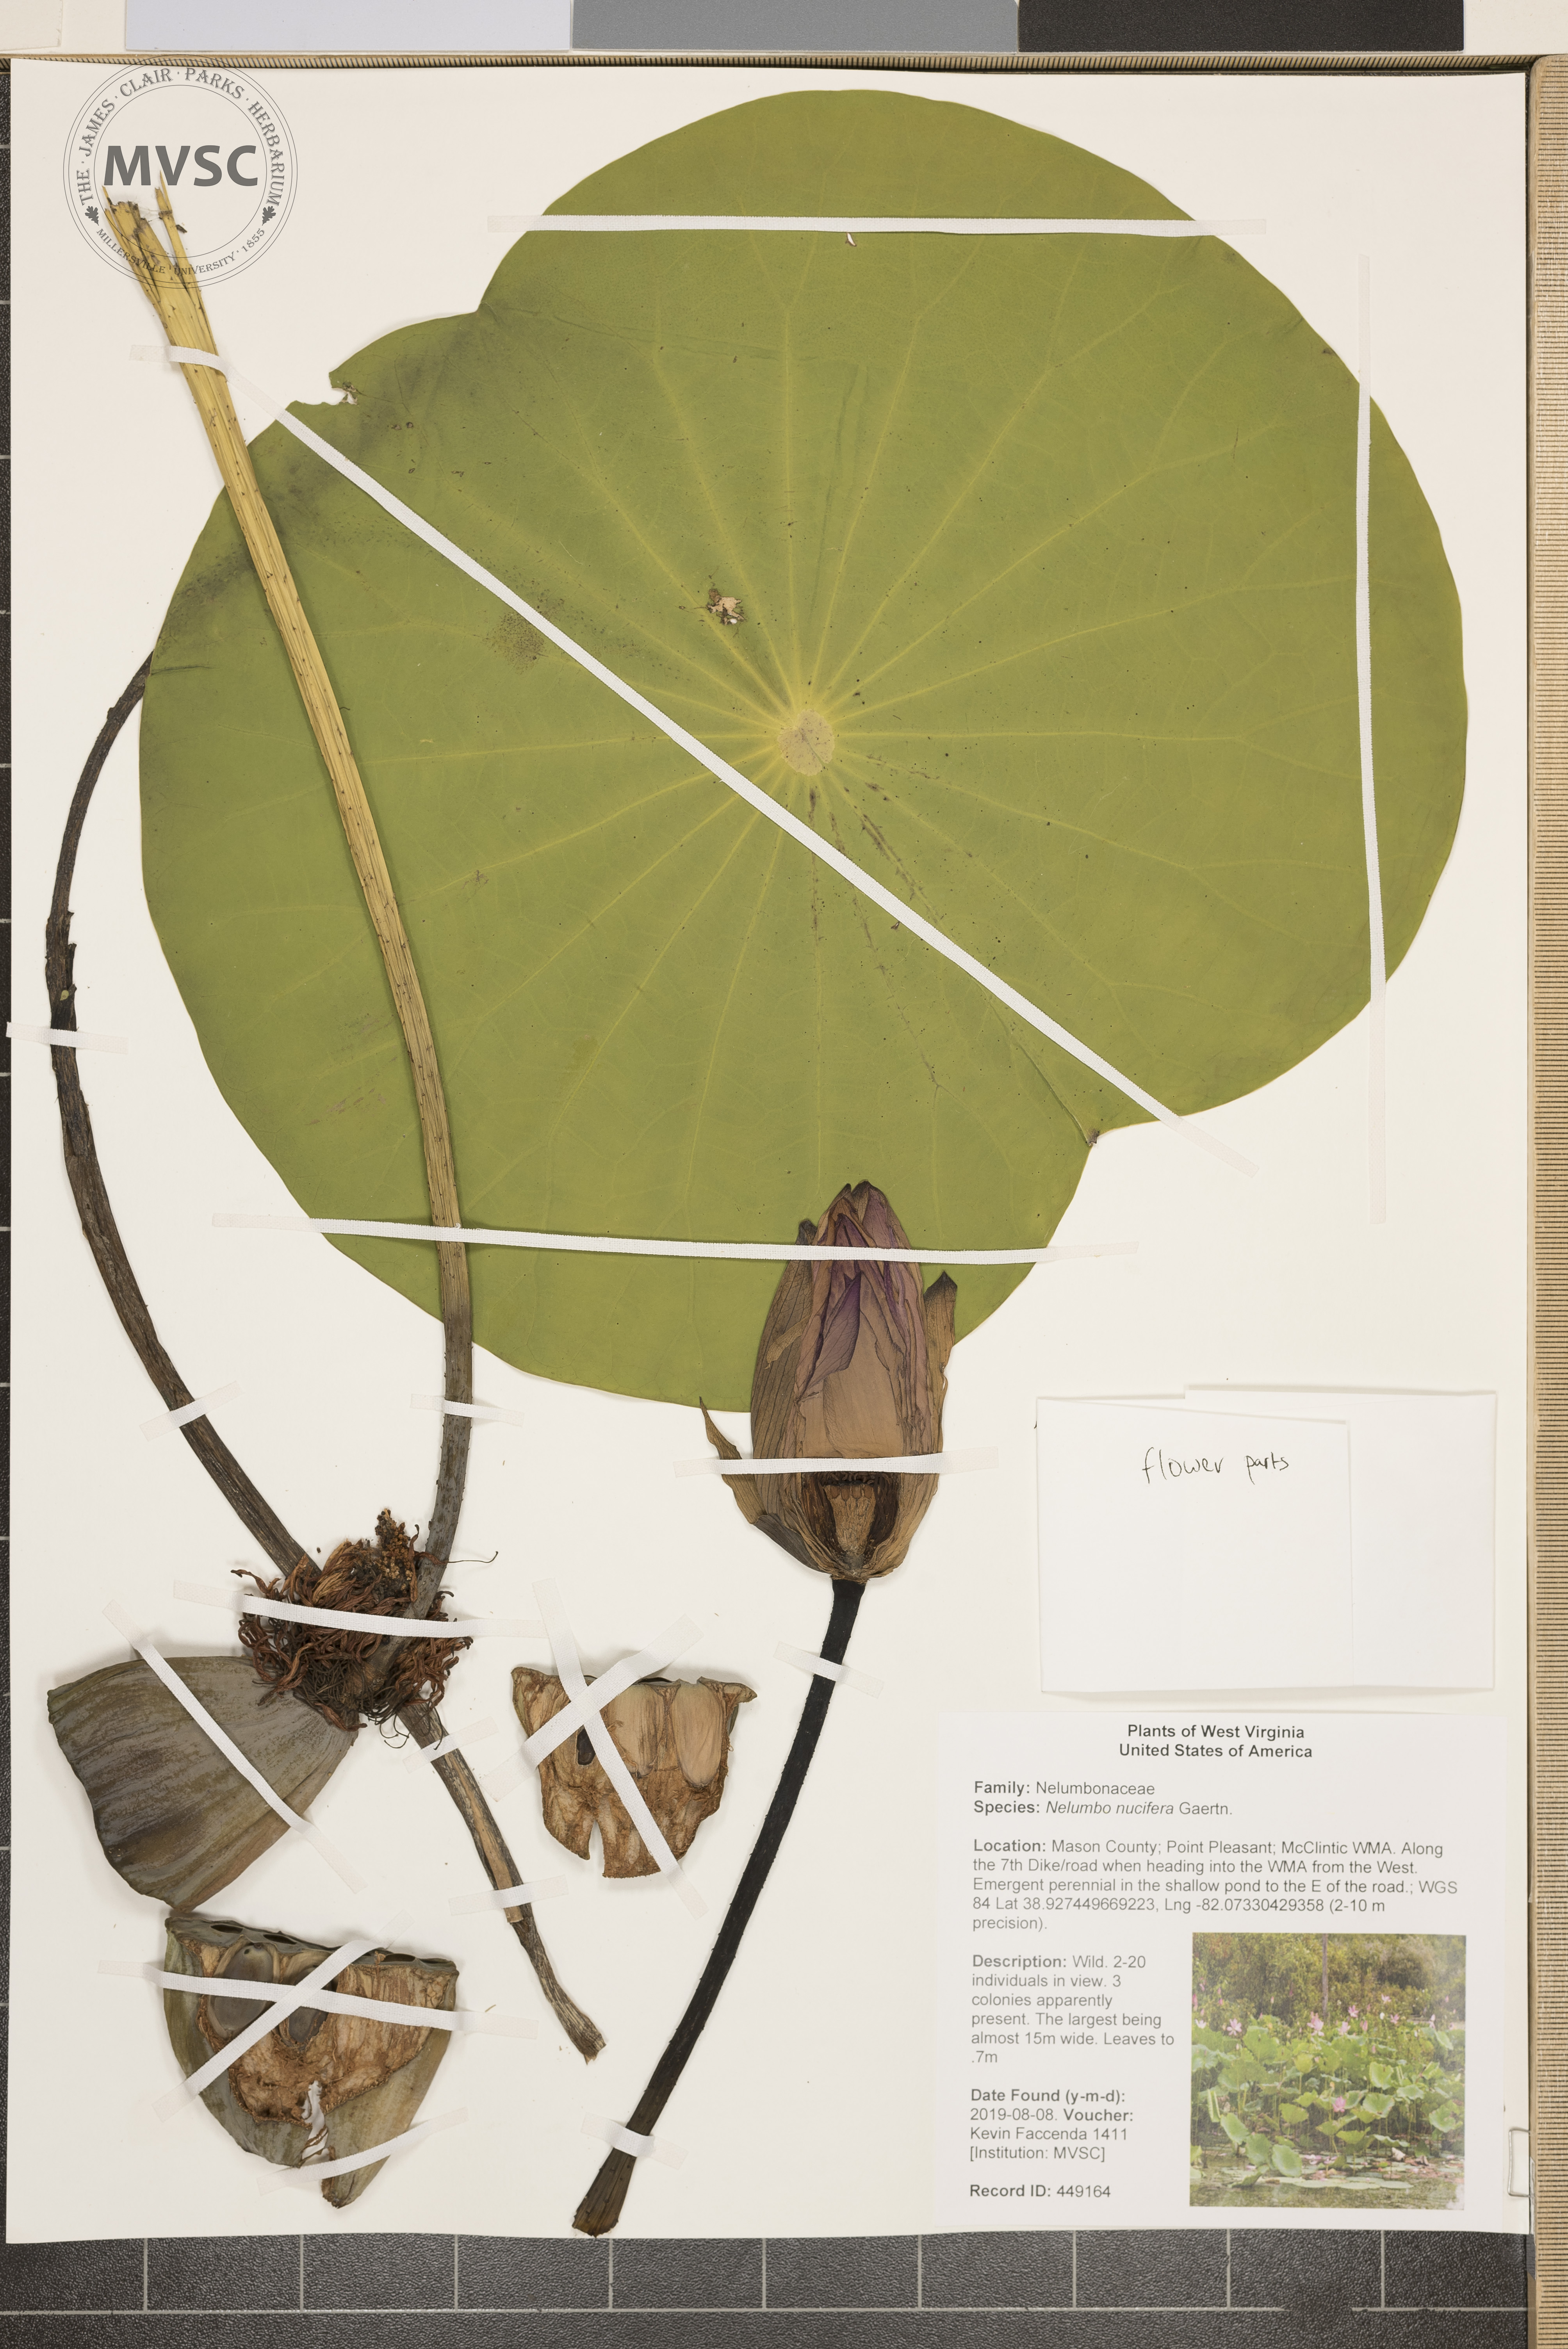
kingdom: Plantae
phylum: Tracheophyta
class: Magnoliopsida
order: Proteales
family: Nelumbonaceae
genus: Nelumbo
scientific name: Nelumbo nucifera
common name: Sacred lotus
